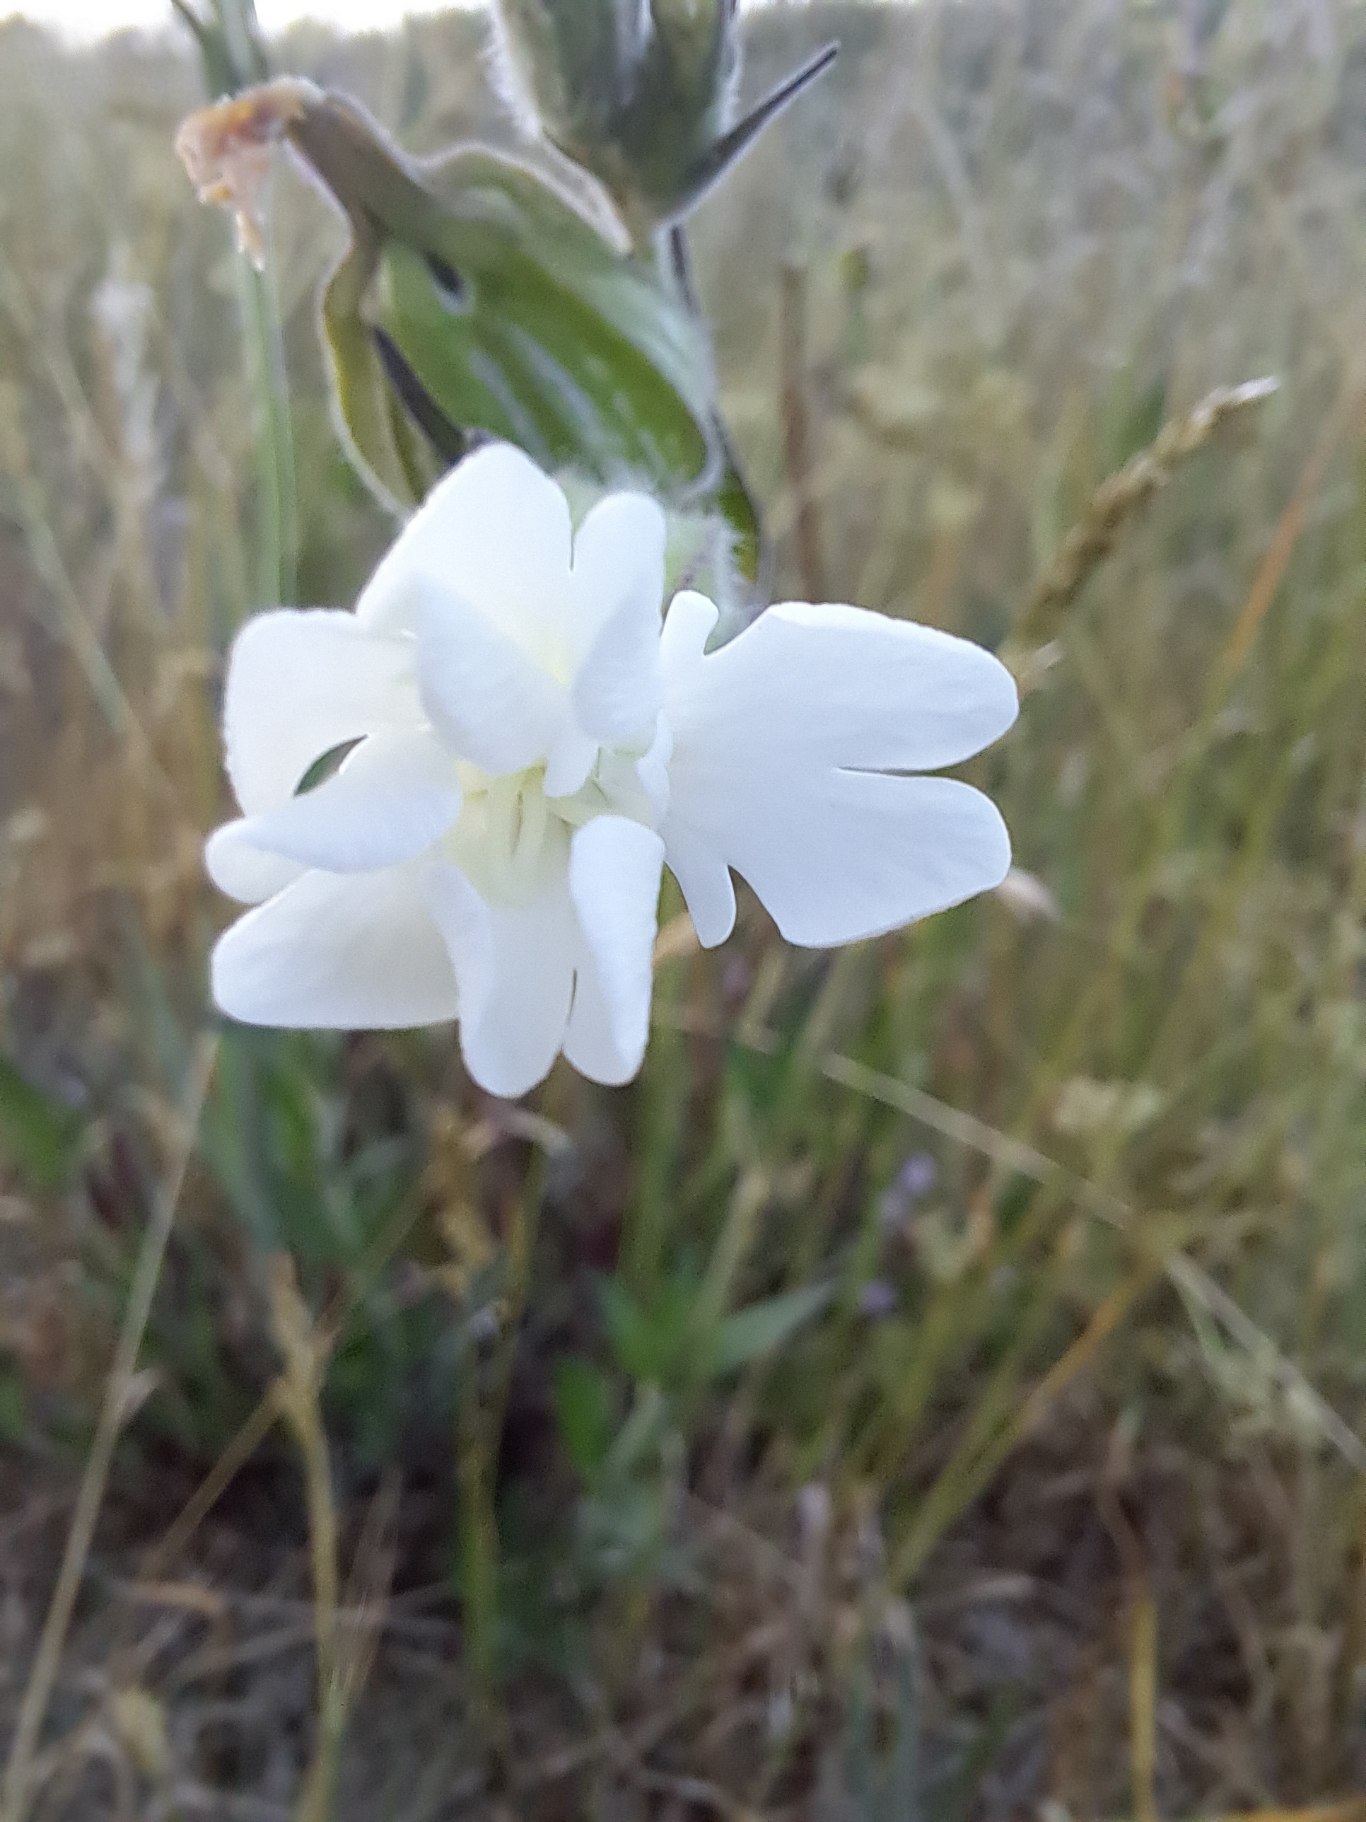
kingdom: Plantae
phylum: Tracheophyta
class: Magnoliopsida
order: Caryophyllales
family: Caryophyllaceae
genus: Silene
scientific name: Silene latifolia
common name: Aftenpragtstjerne
